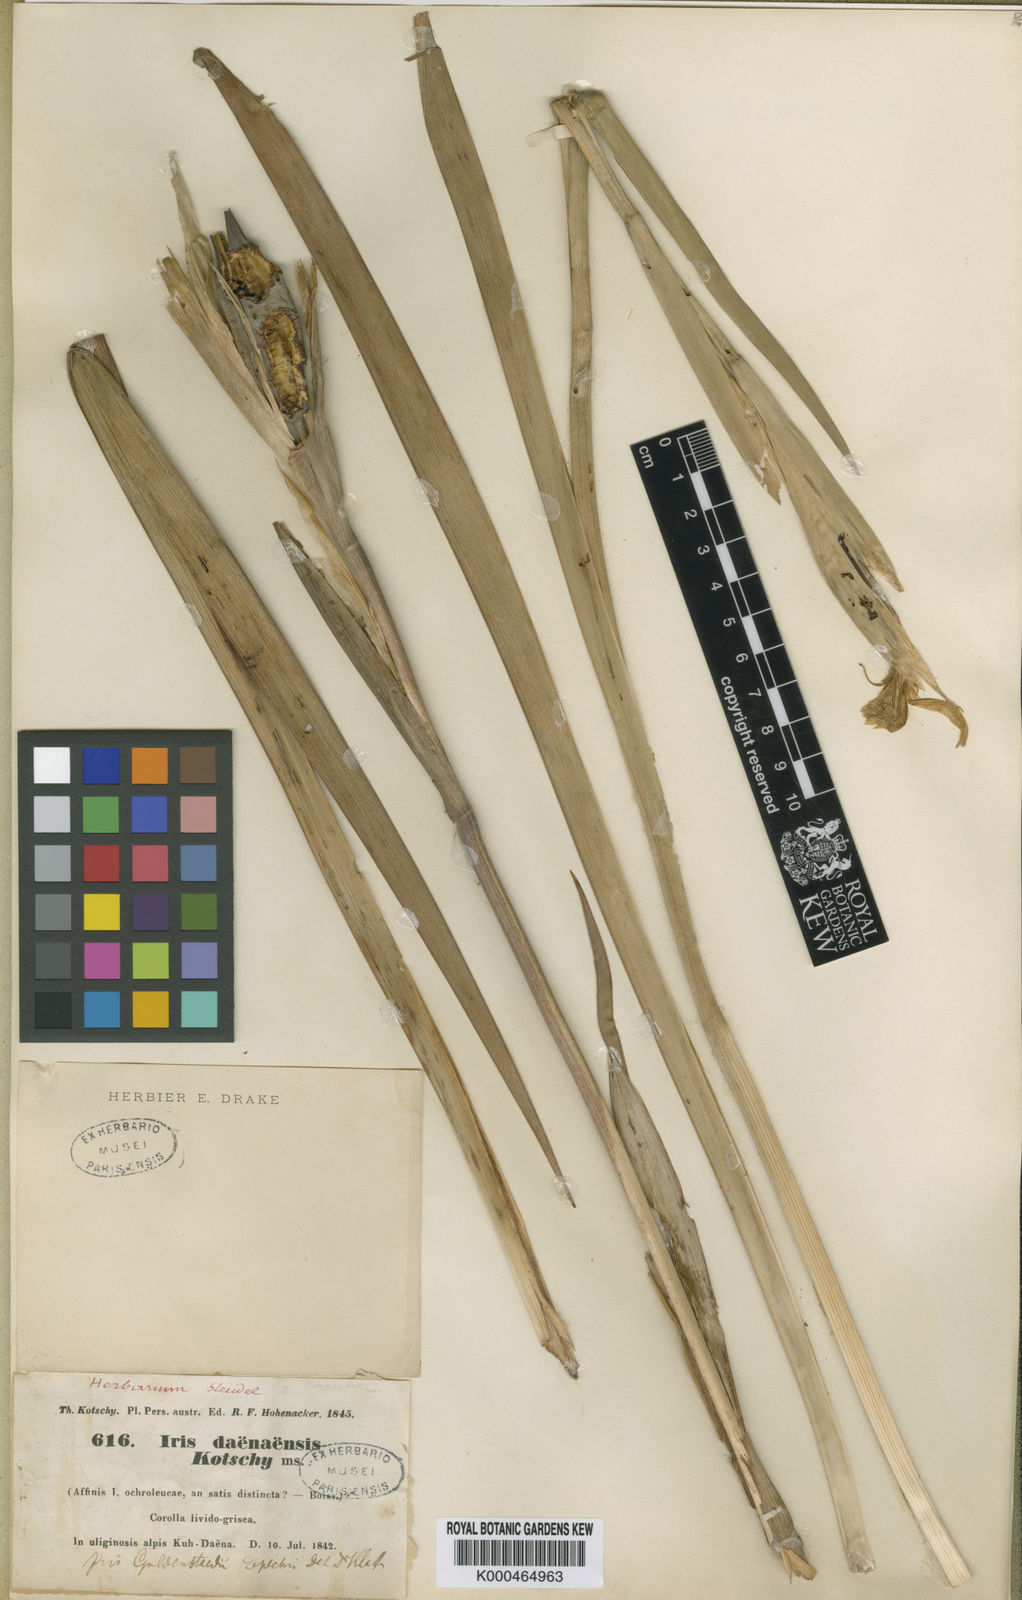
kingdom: Plantae
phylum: Tracheophyta
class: Liliopsida
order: Asparagales
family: Iridaceae
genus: Iris
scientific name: Iris
